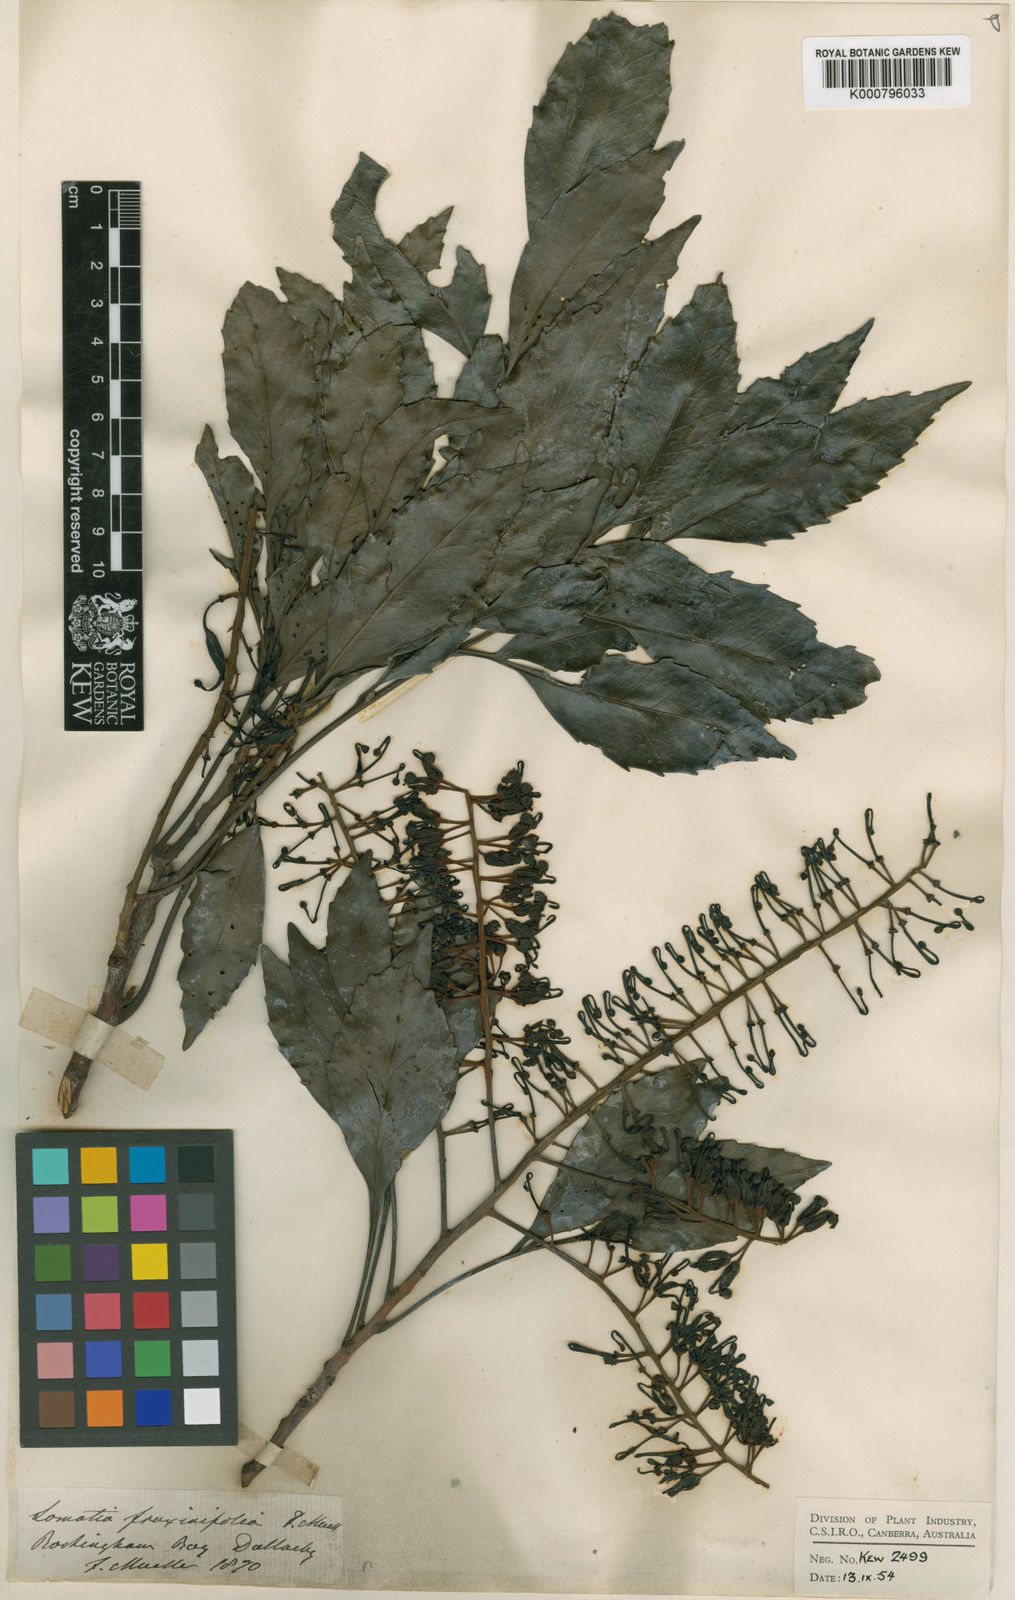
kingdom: Plantae
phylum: Tracheophyta
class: Magnoliopsida
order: Proteales
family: Proteaceae
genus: Lomatia
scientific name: Lomatia fraxinifolia
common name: Black-leaved silky oak
